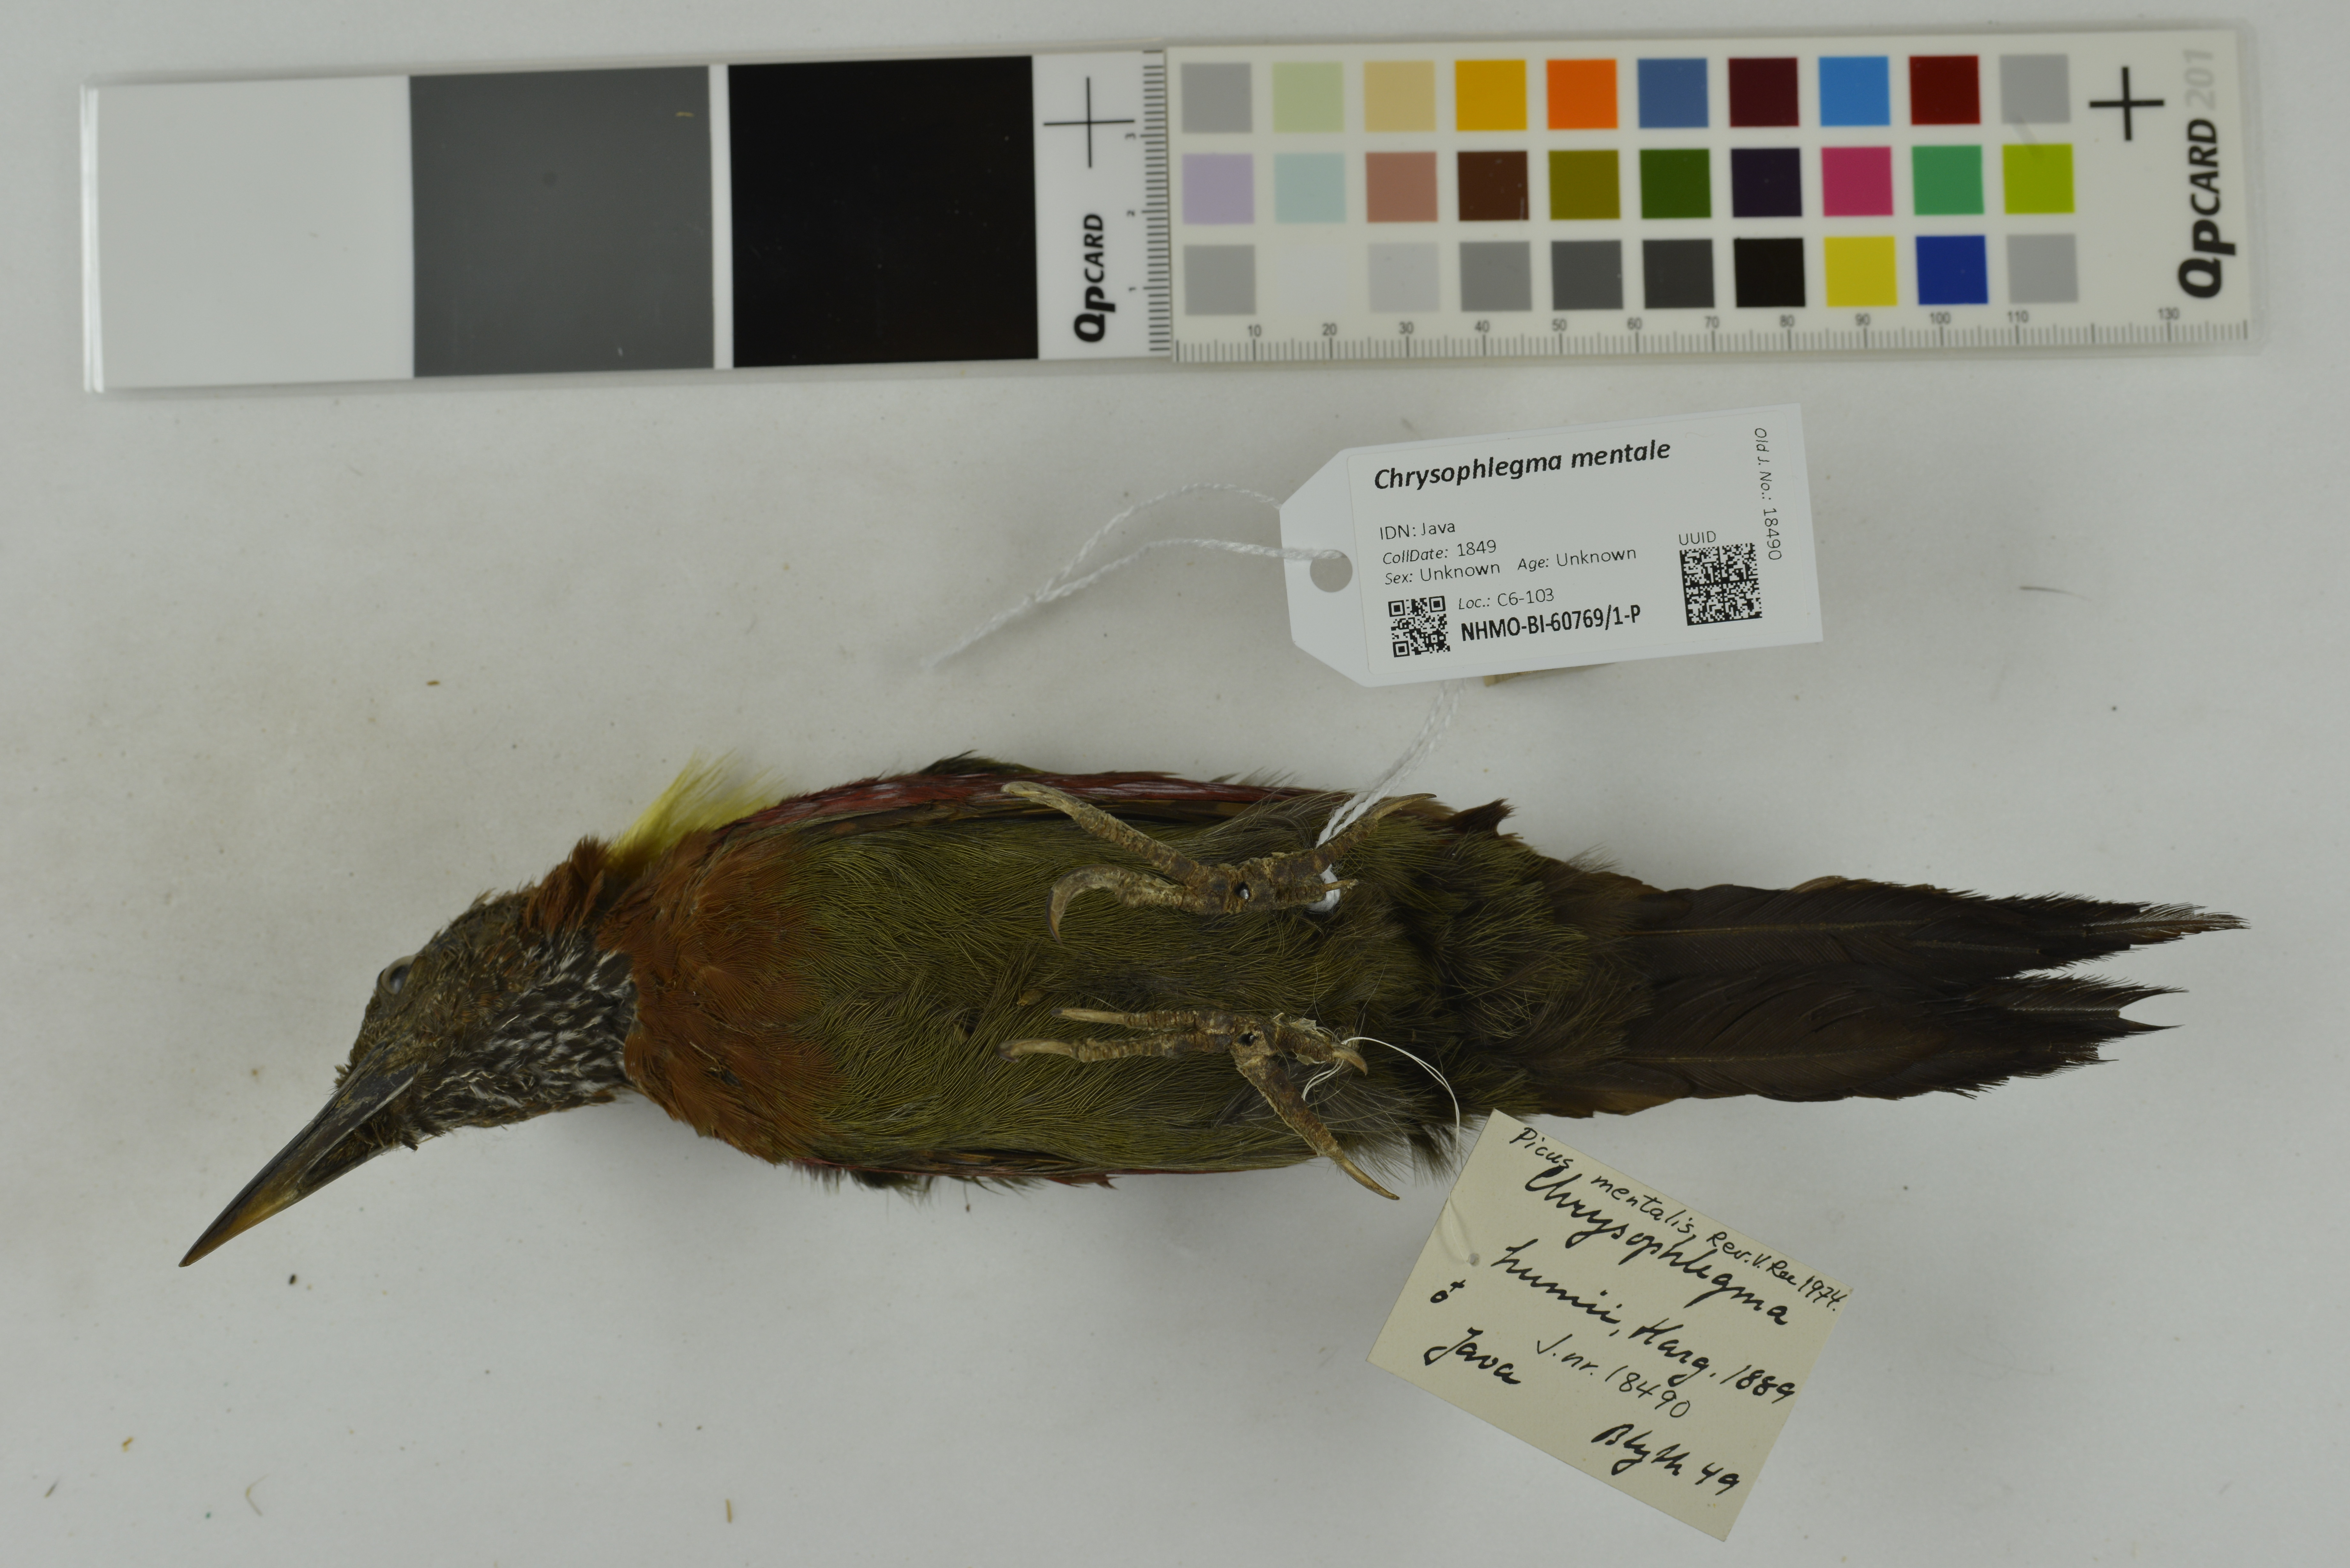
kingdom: Animalia
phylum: Chordata
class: Aves
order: Piciformes
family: Picidae
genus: Chrysophlegma
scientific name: Chrysophlegma mentale
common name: Checker-throated woodpecker
